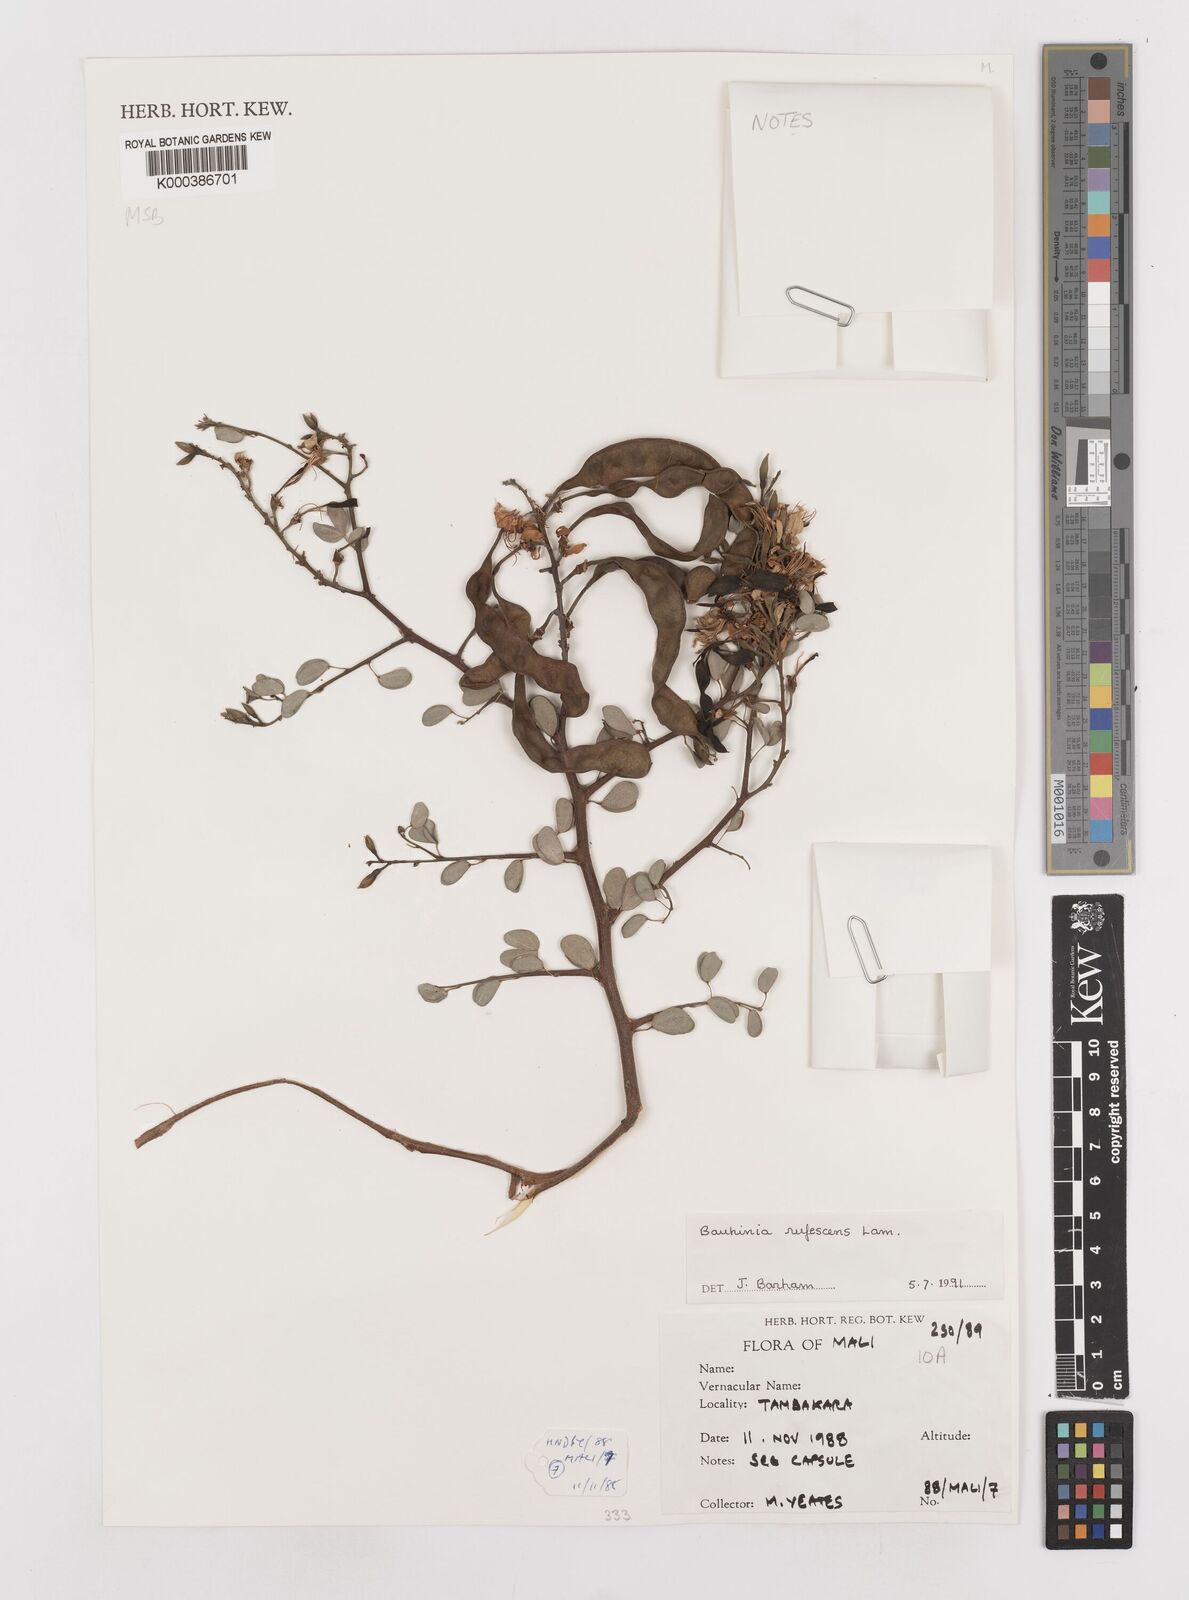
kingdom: Plantae
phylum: Tracheophyta
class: Magnoliopsida
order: Fabales
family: Fabaceae
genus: Bauhinia
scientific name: Bauhinia rufescens
